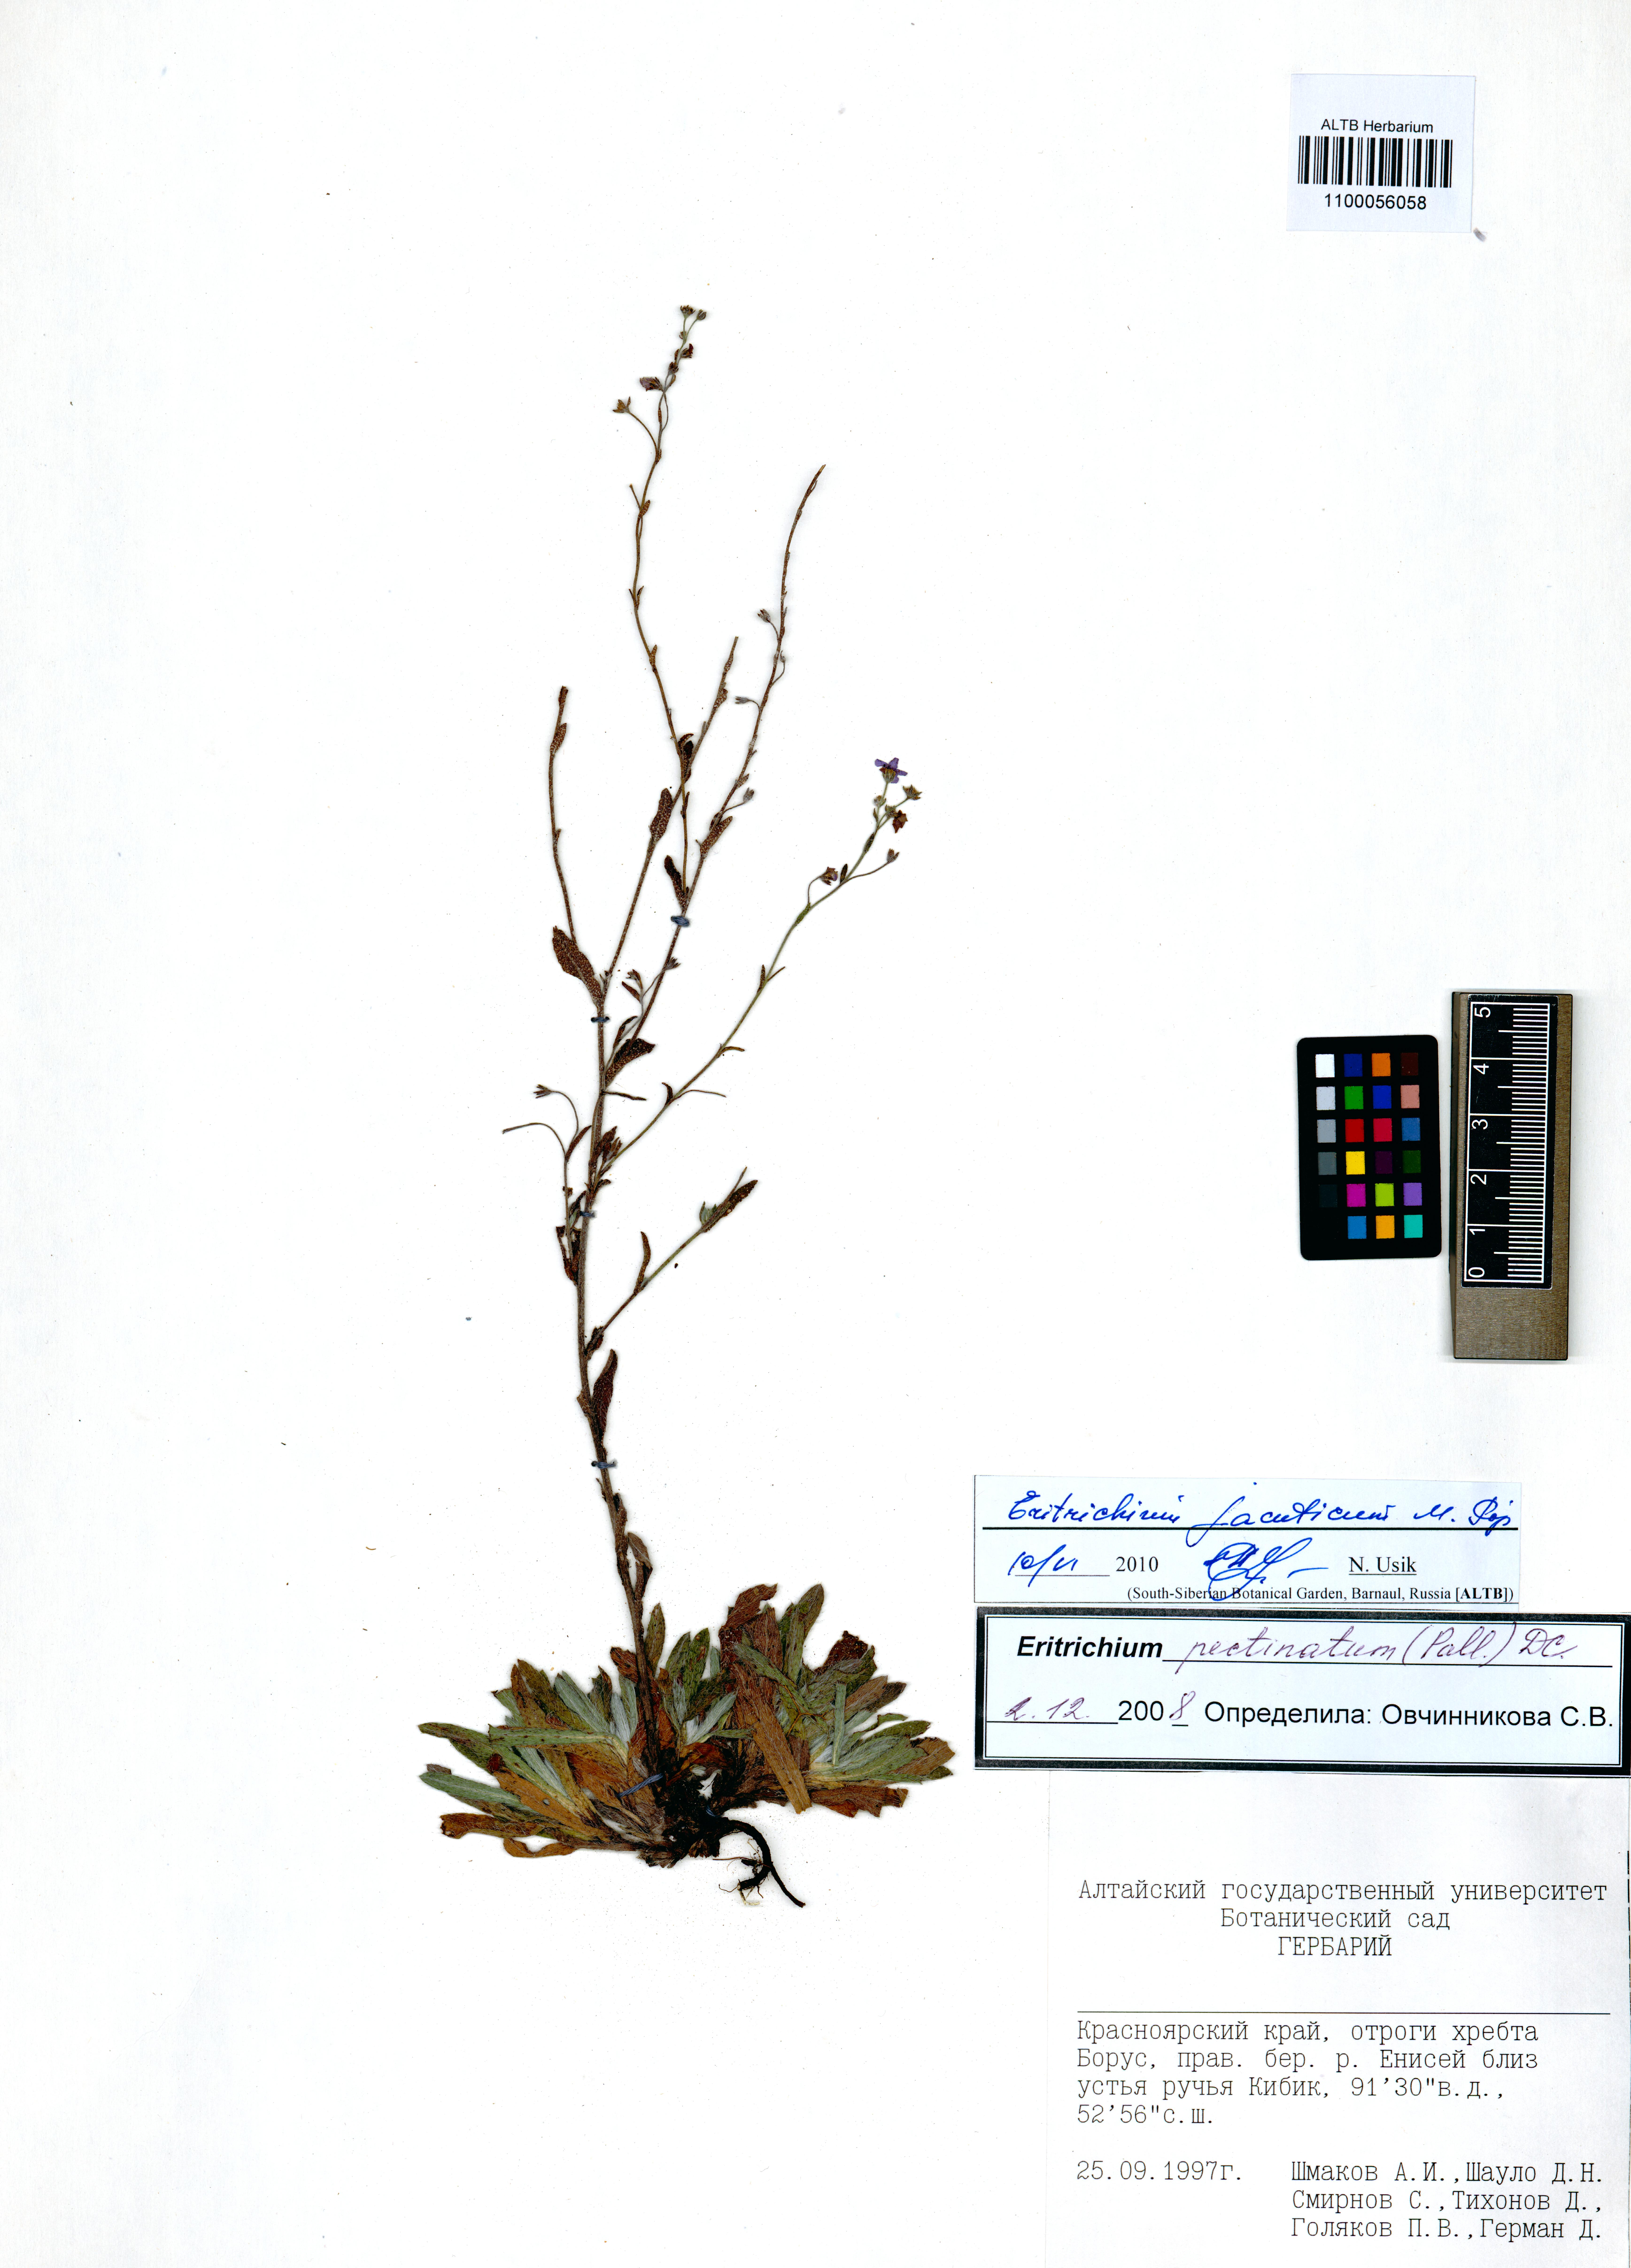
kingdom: Plantae
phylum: Tracheophyta
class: Magnoliopsida
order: Boraginales
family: Boraginaceae
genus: Eritrichium
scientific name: Eritrichium jacuticum
